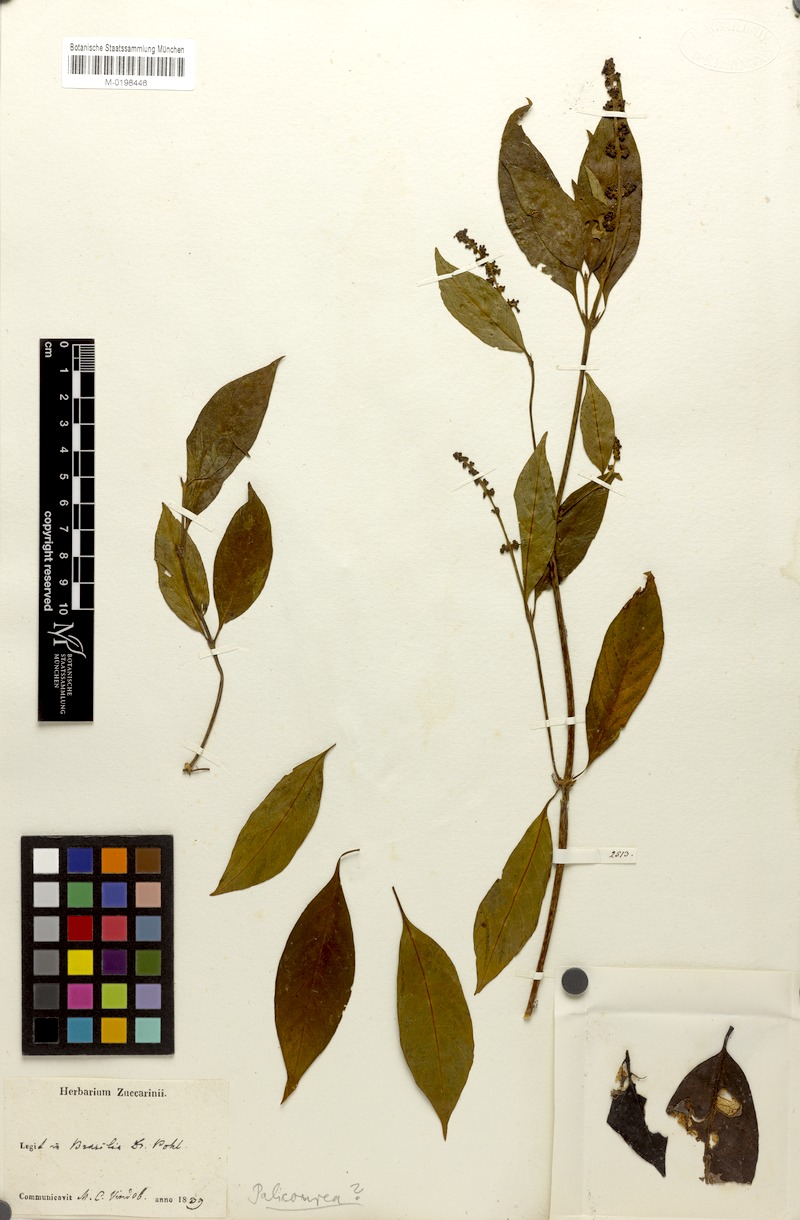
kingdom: Plantae
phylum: Tracheophyta
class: Magnoliopsida
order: Gentianales
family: Rubiaceae
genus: Psychotria
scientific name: Psychotria martiusii
